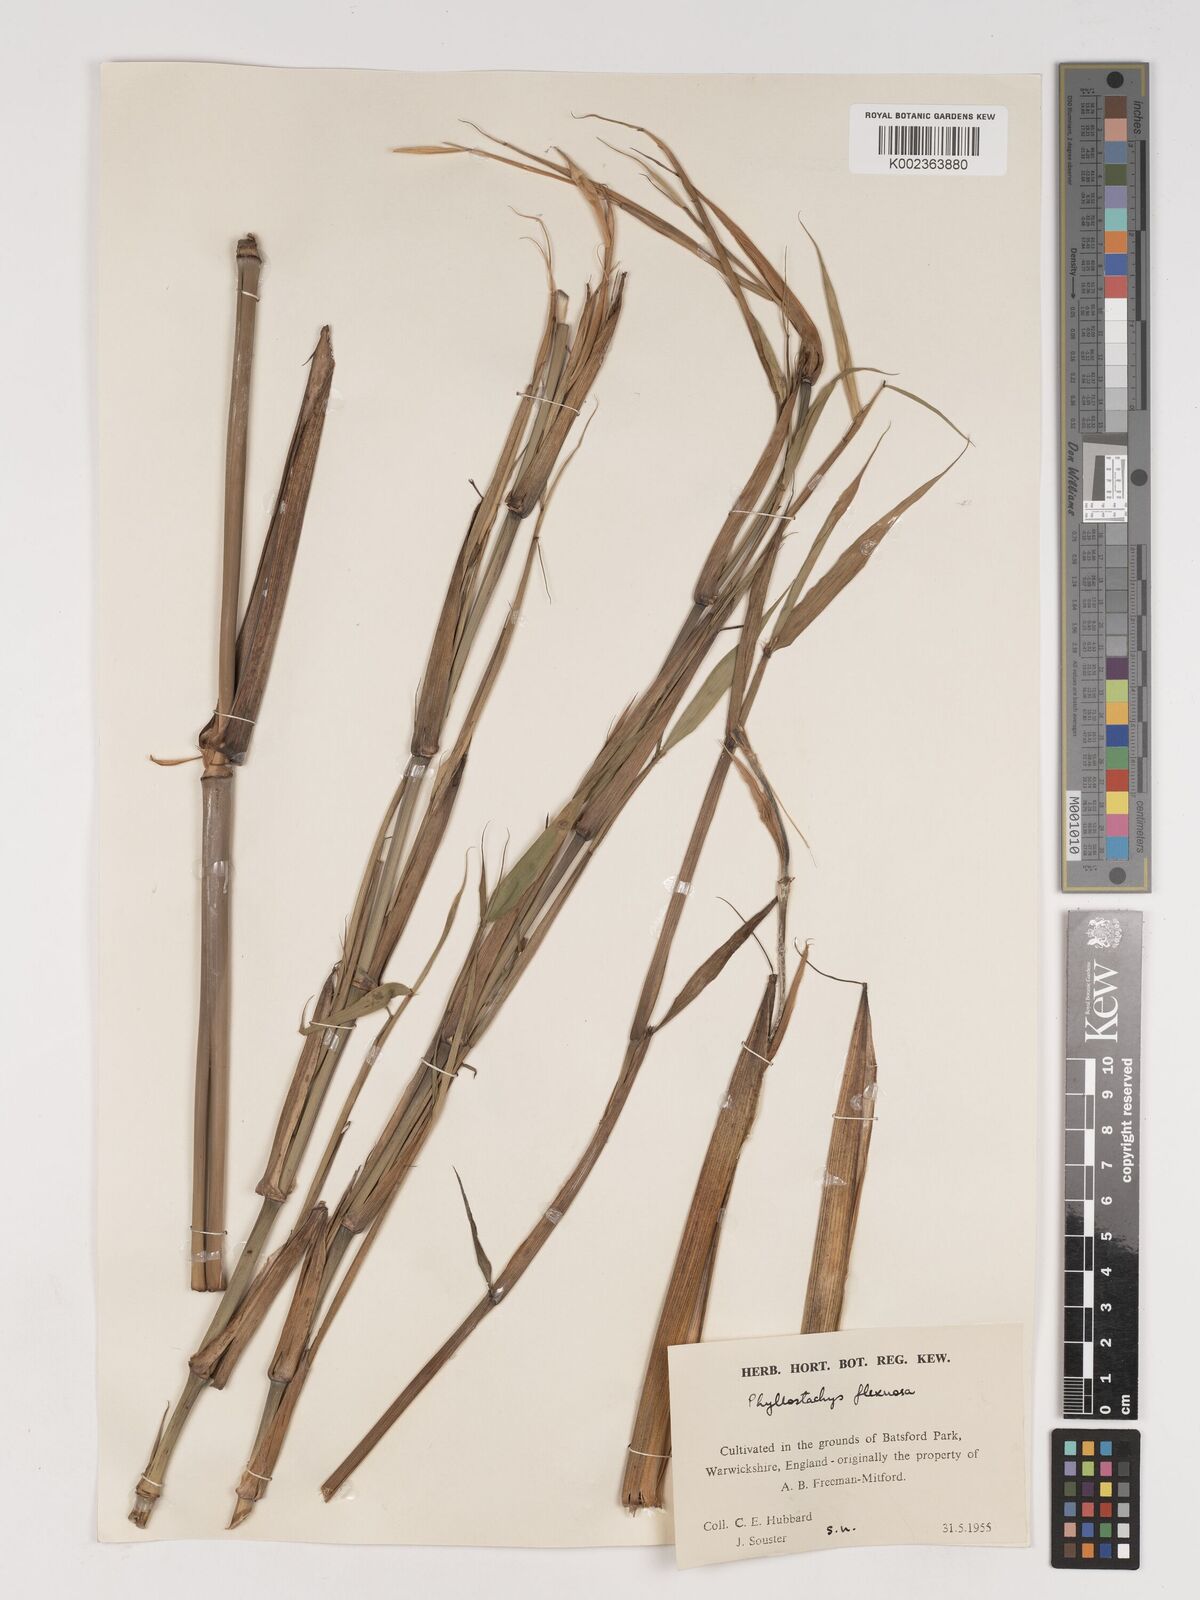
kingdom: Plantae
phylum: Tracheophyta
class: Liliopsida
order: Poales
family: Poaceae
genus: Phyllostachys
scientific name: Phyllostachys flexuosa
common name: Drooping timber bamboo
